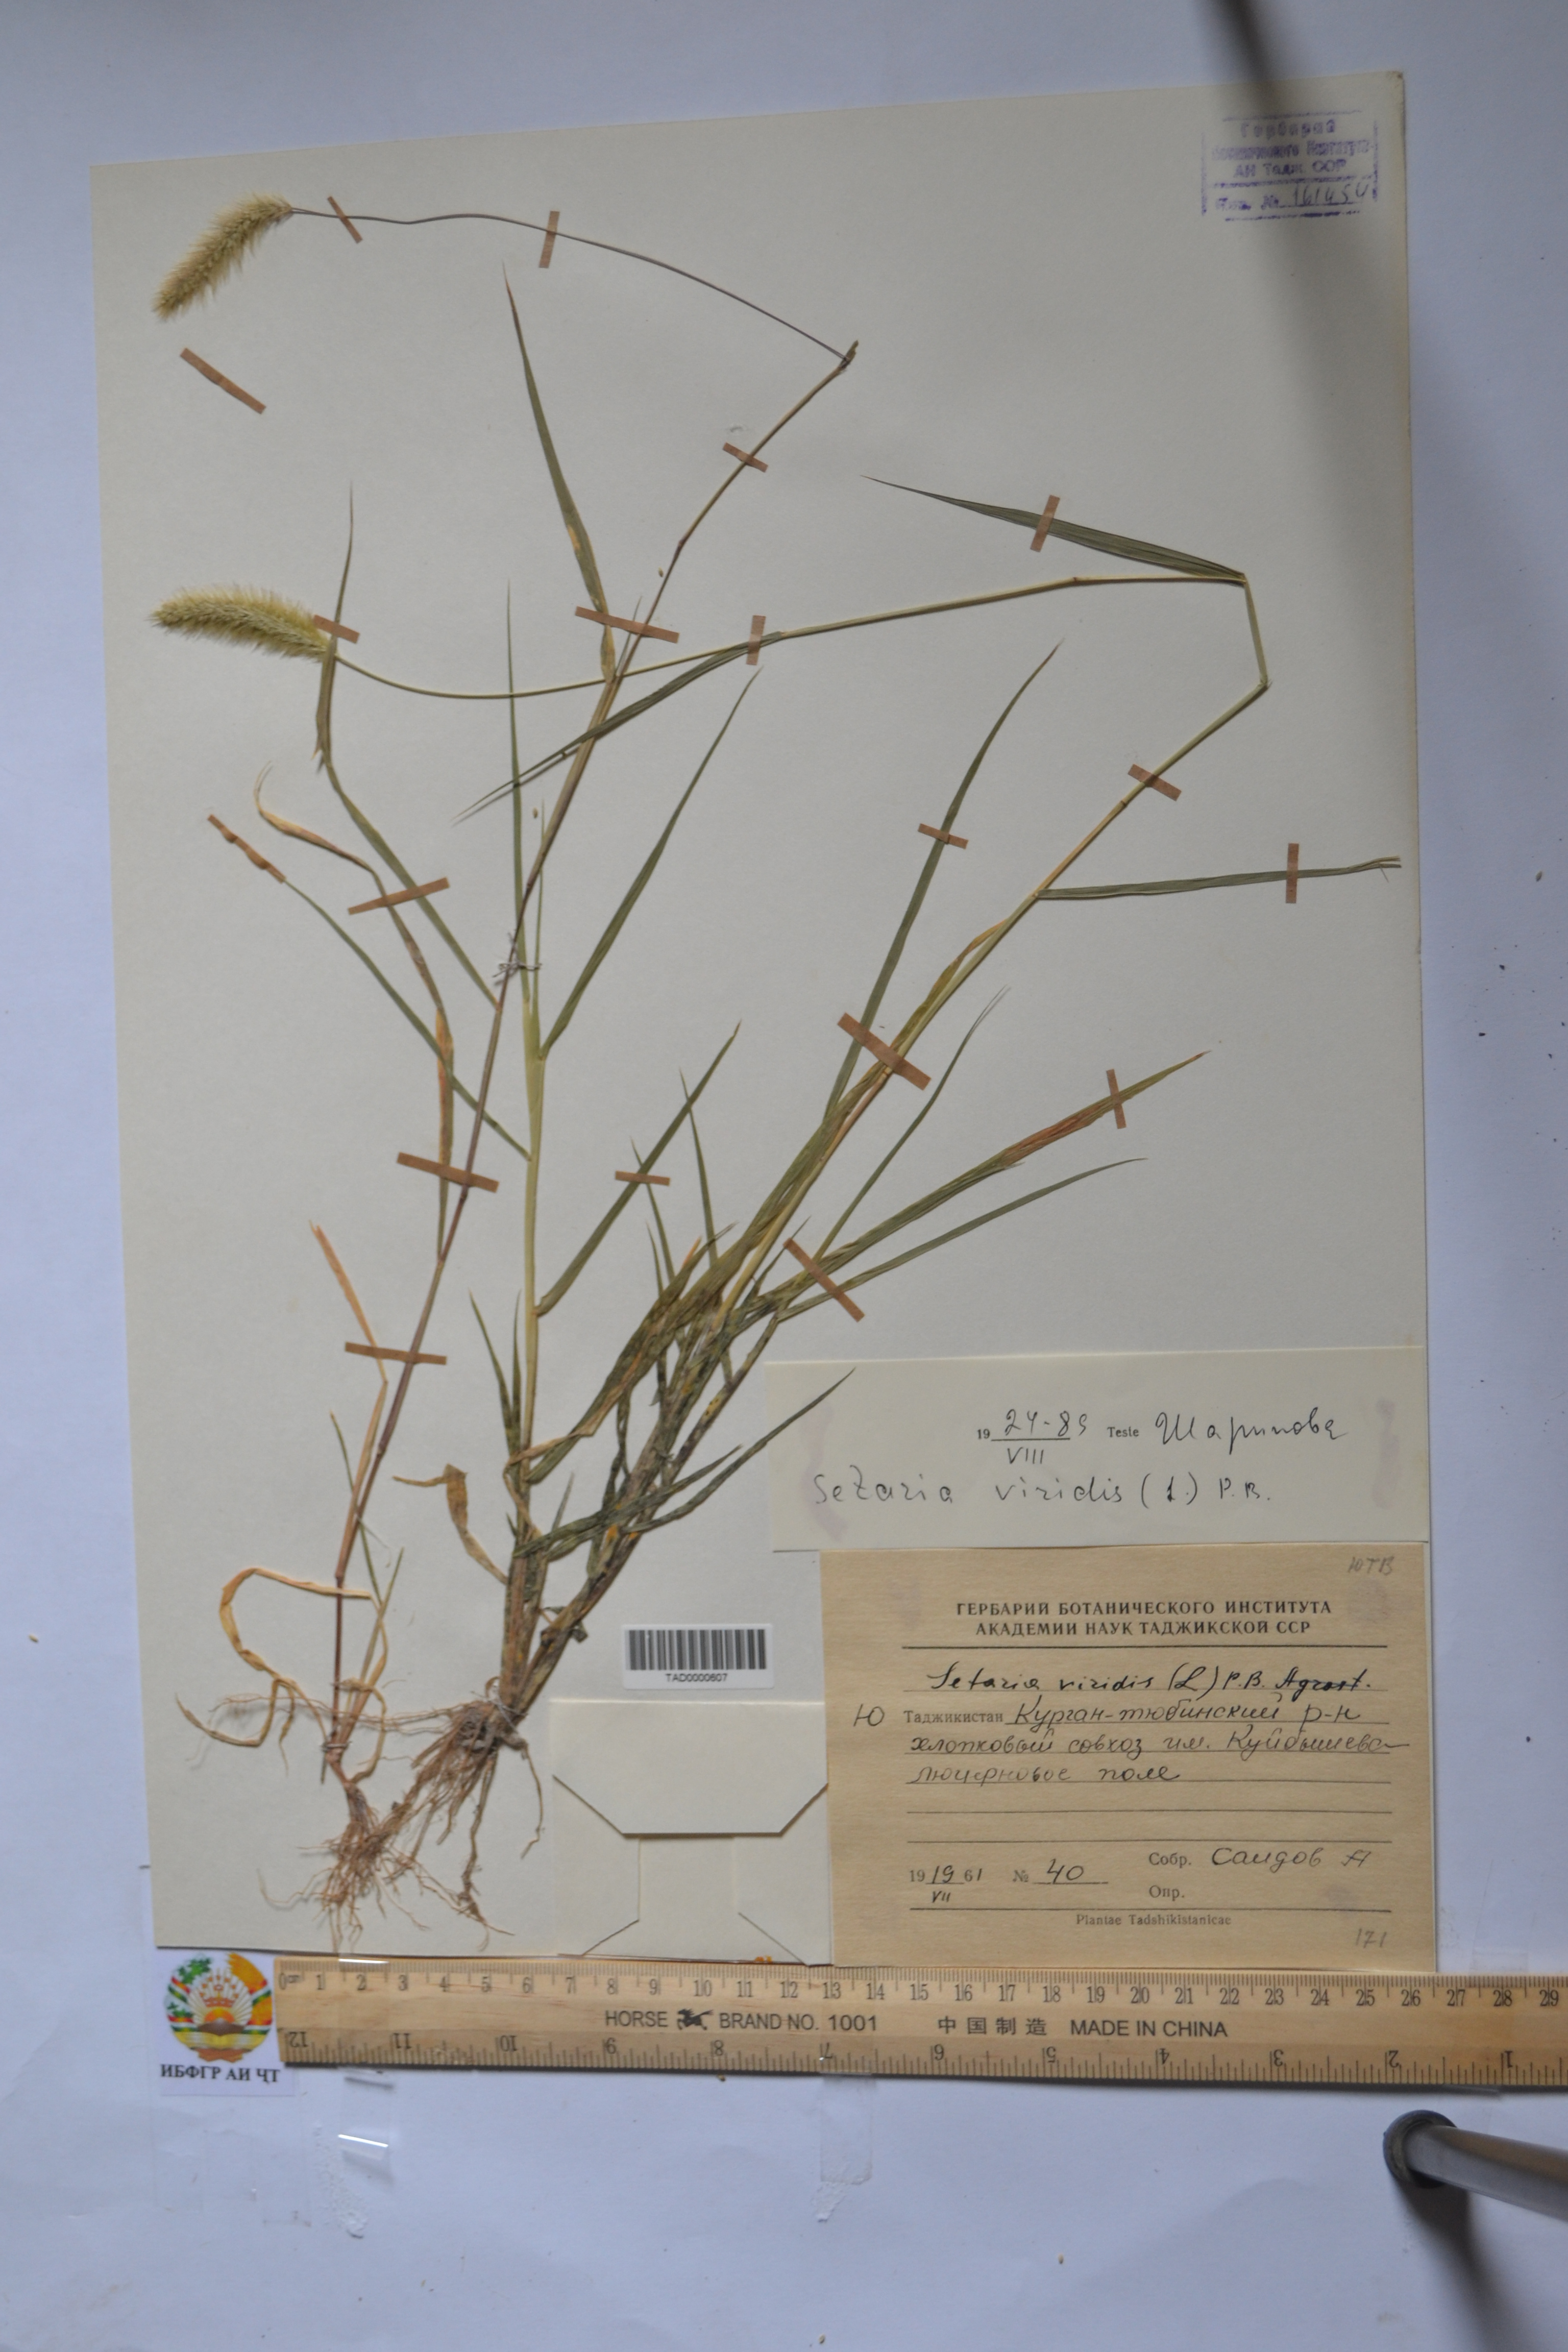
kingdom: Plantae
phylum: Tracheophyta
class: Liliopsida
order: Poales
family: Poaceae
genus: Setaria
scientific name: Setaria viridis
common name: Green bristlegrass
